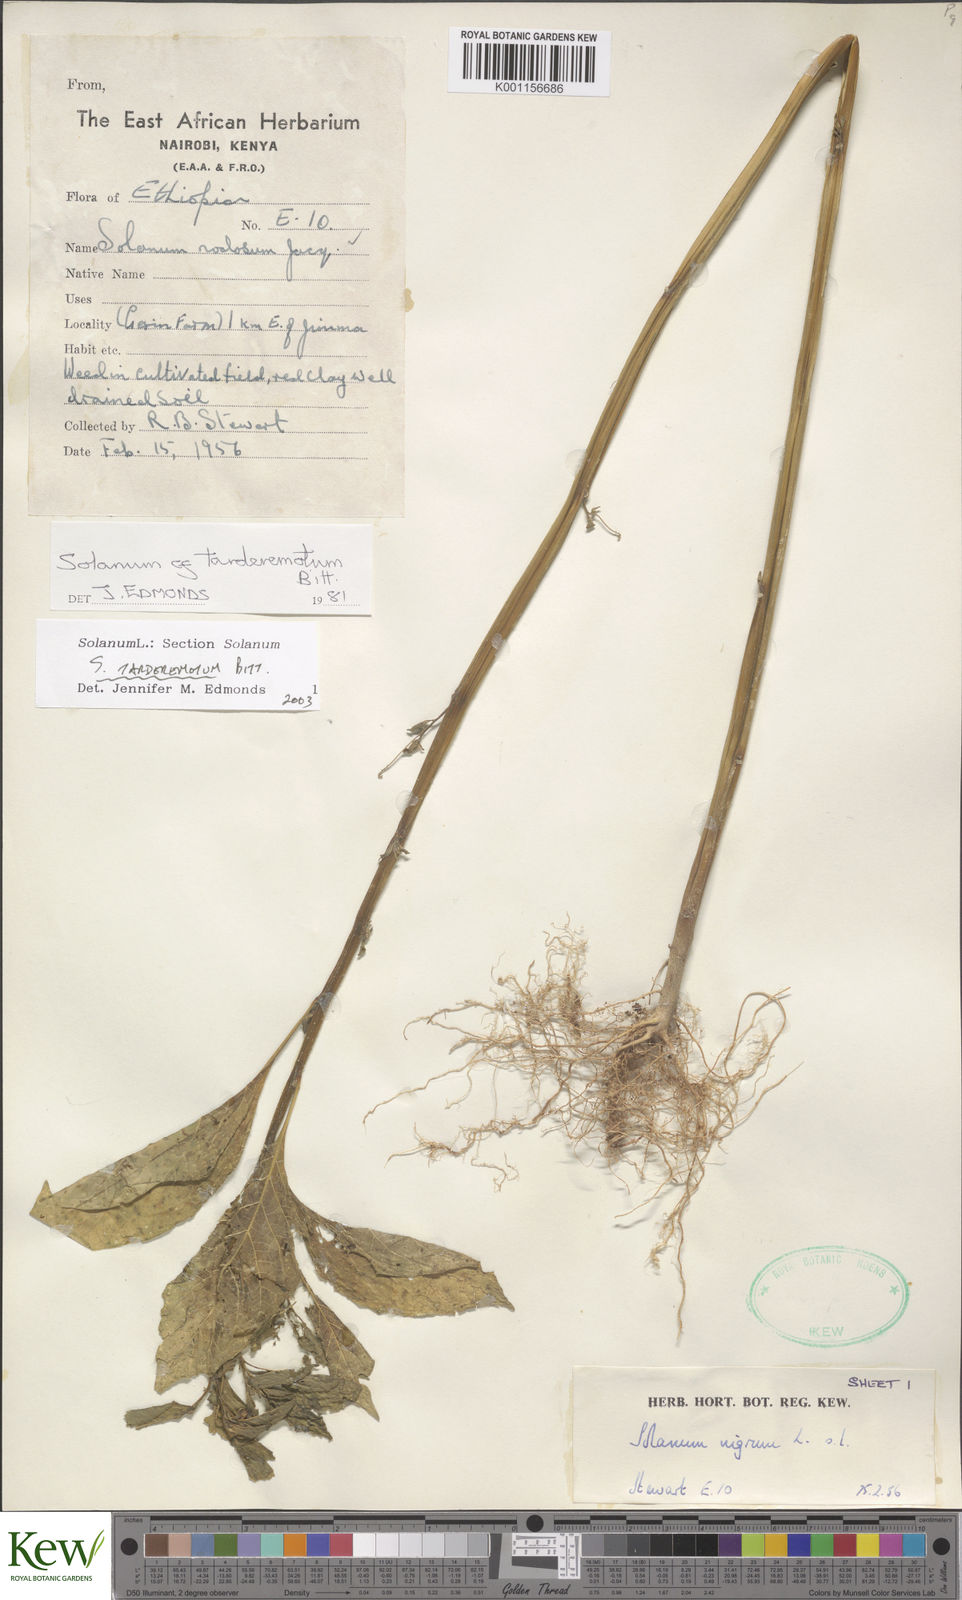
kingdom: Plantae
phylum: Tracheophyta
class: Magnoliopsida
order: Solanales
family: Solanaceae
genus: Solanum
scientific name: Solanum tarderemotum
